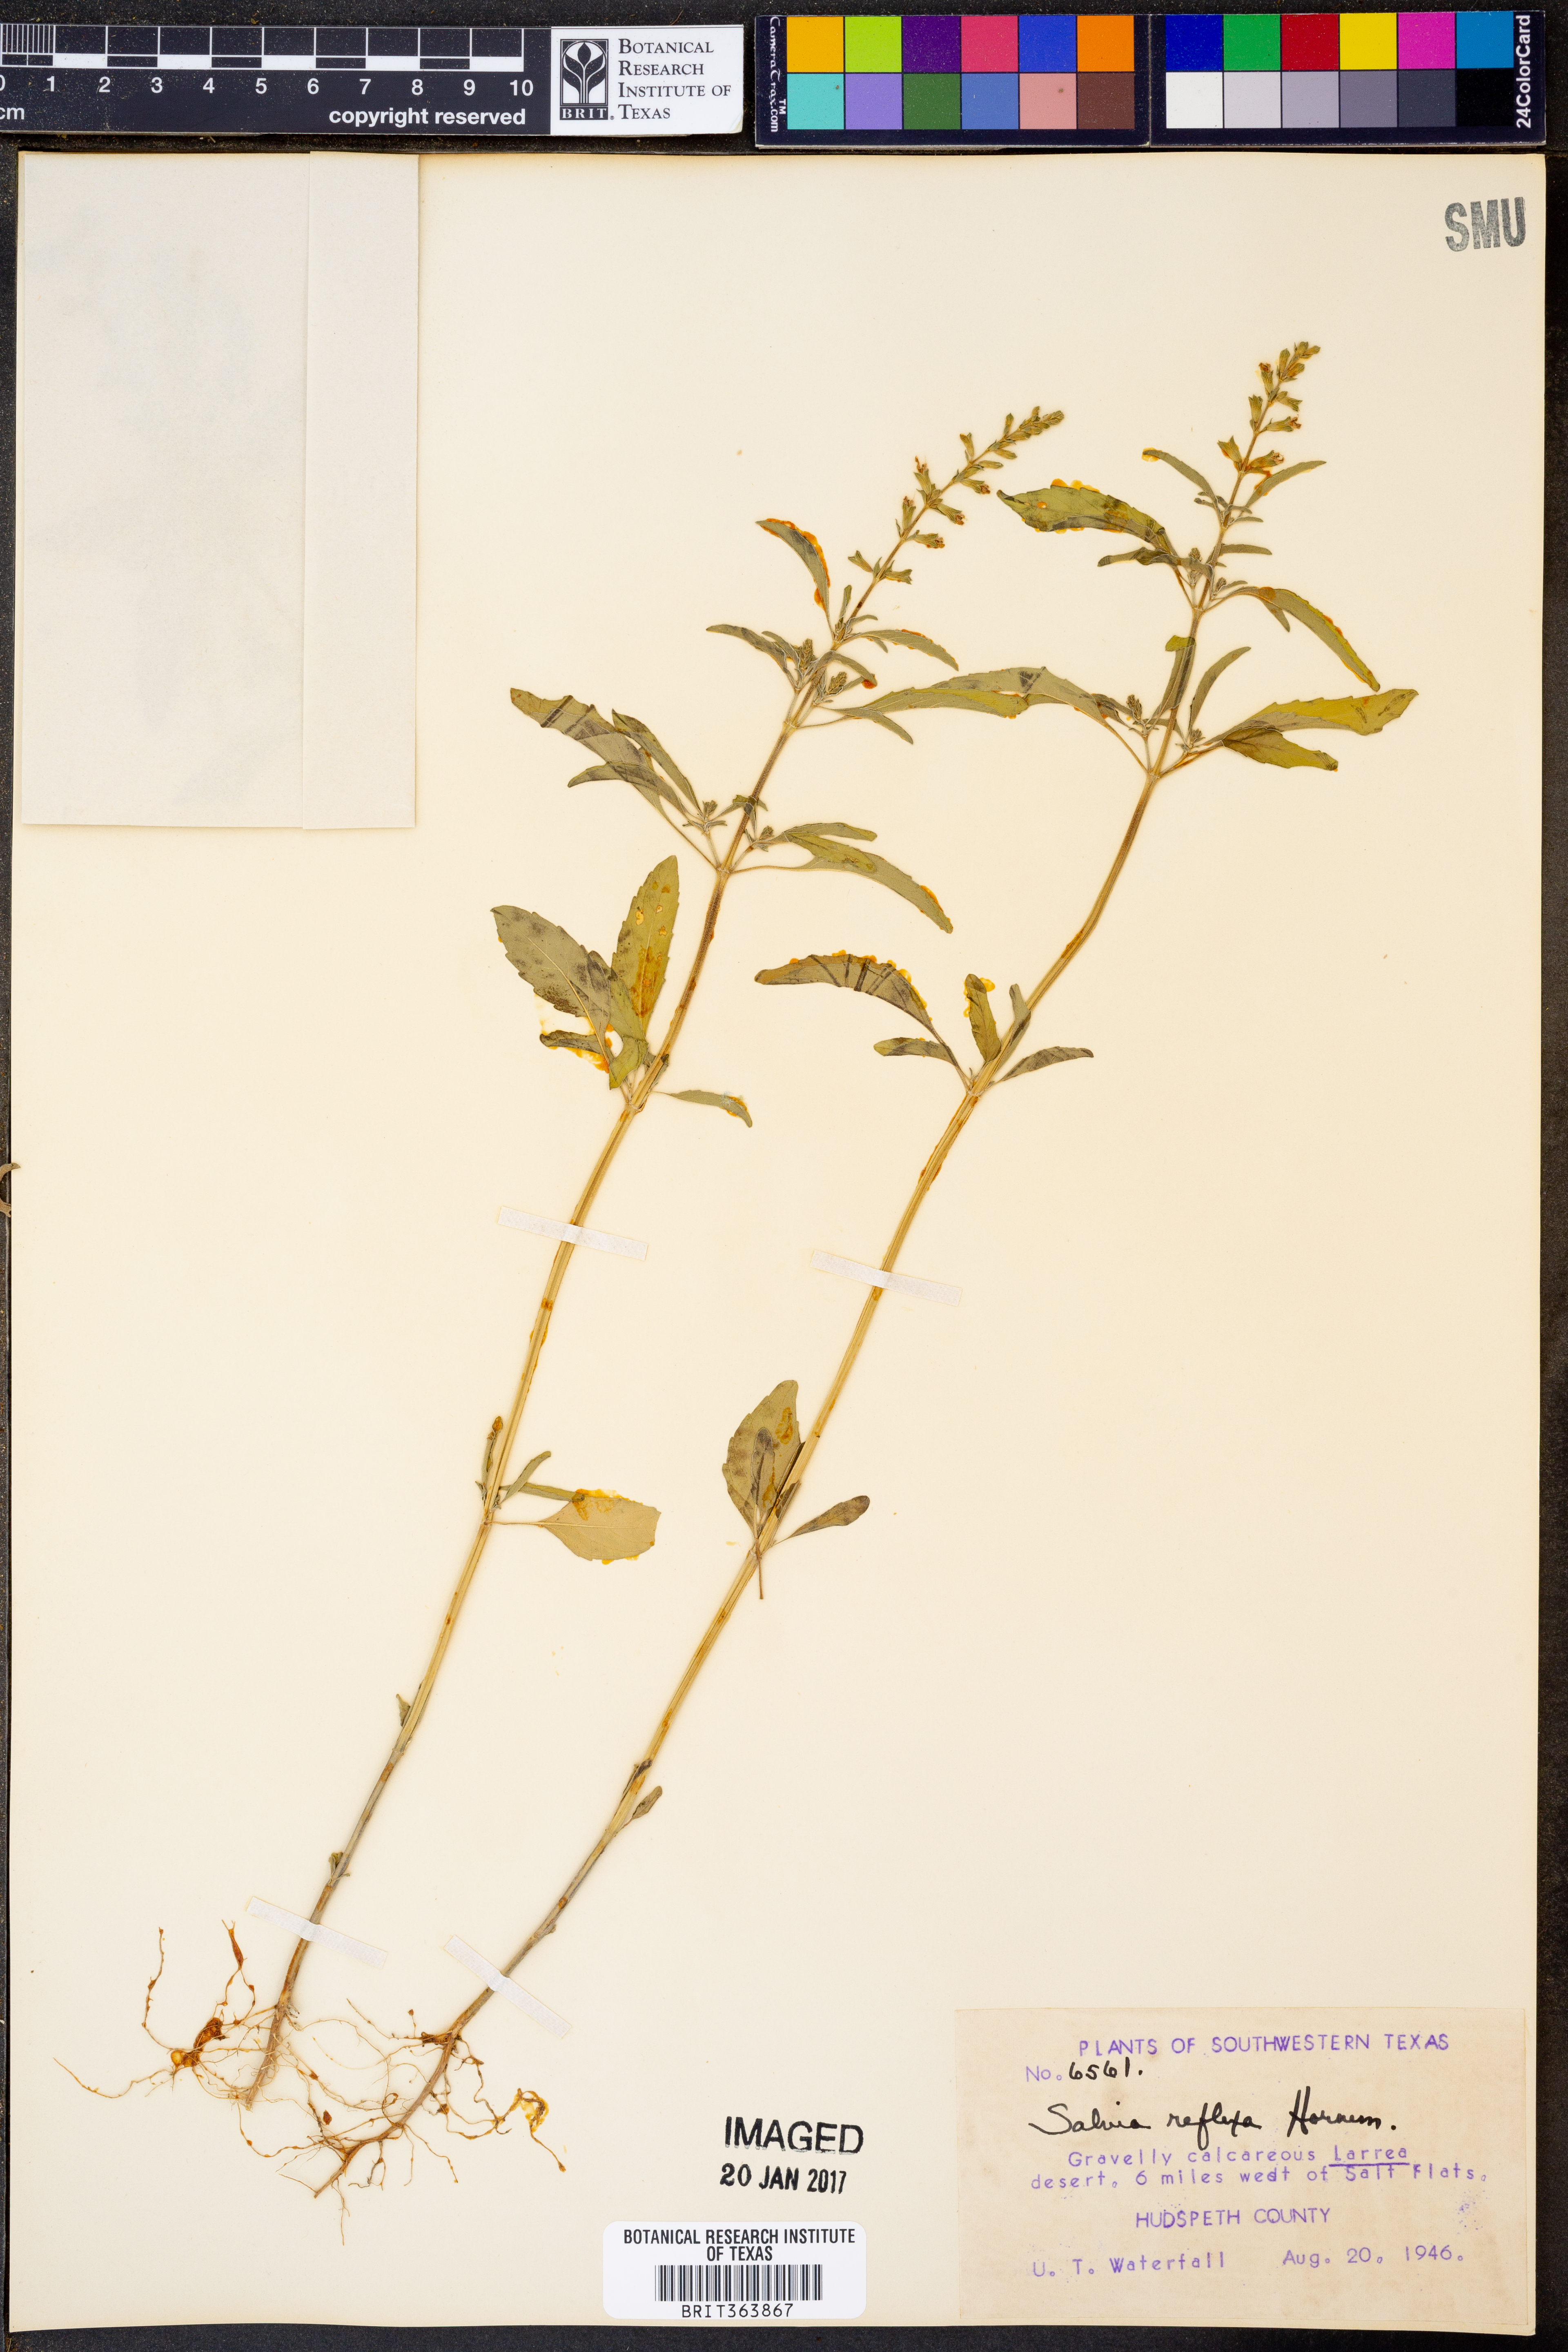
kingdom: Plantae
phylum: Tracheophyta
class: Magnoliopsida
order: Lamiales
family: Lamiaceae
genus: Salvia
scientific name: Salvia reflexa
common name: Mintweed
